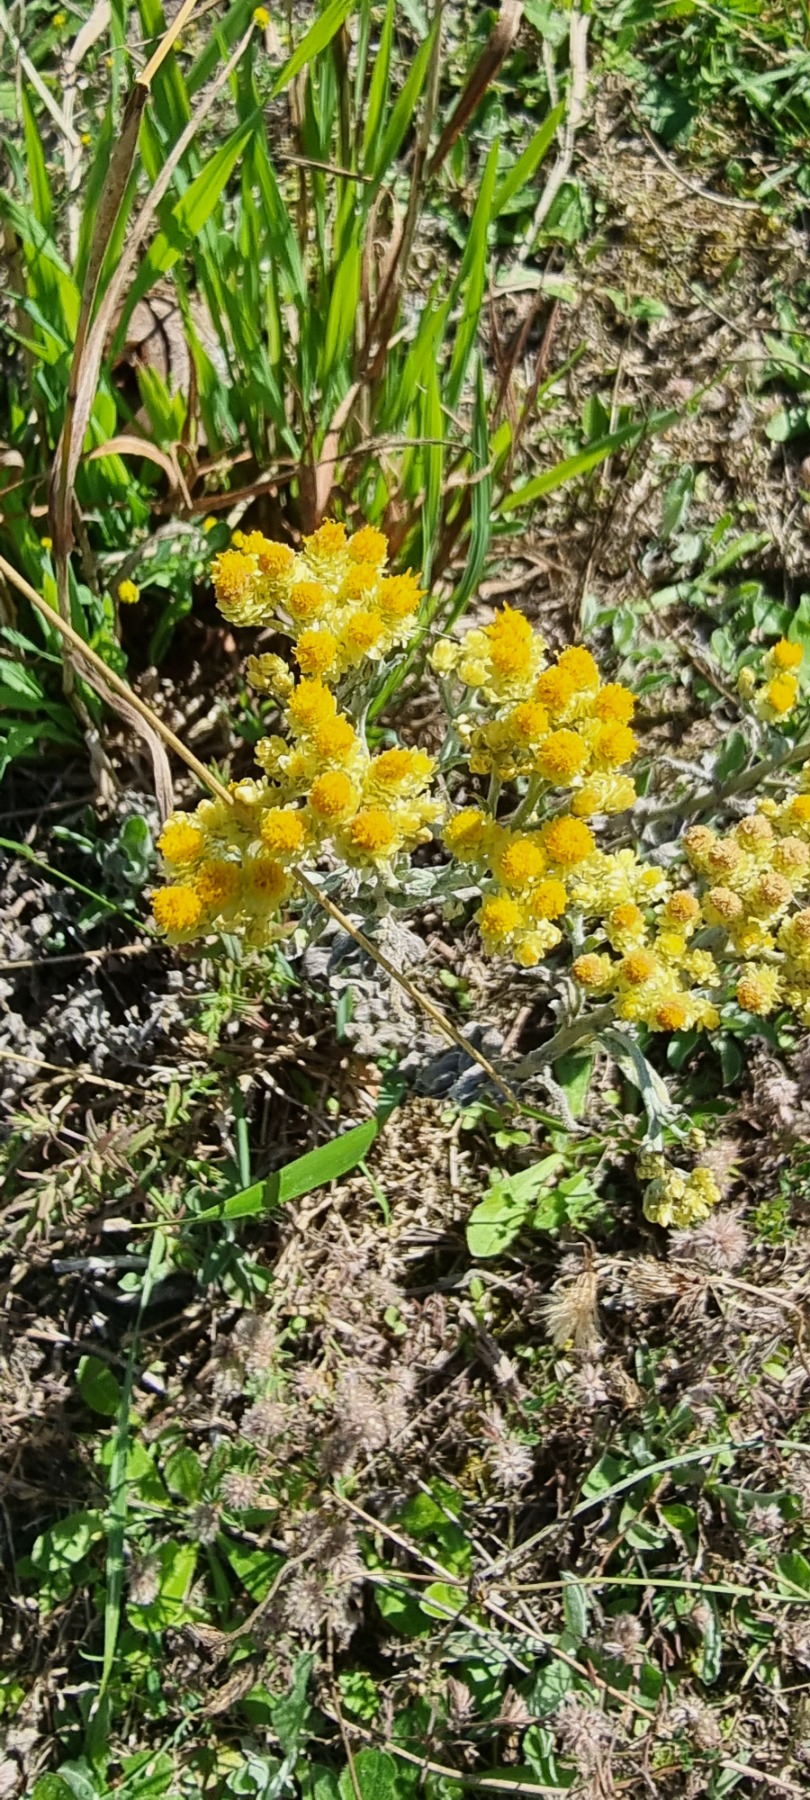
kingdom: Plantae
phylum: Tracheophyta
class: Magnoliopsida
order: Asterales
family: Asteraceae
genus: Helichrysum
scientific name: Helichrysum arenarium
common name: Gul evighedsblomst
